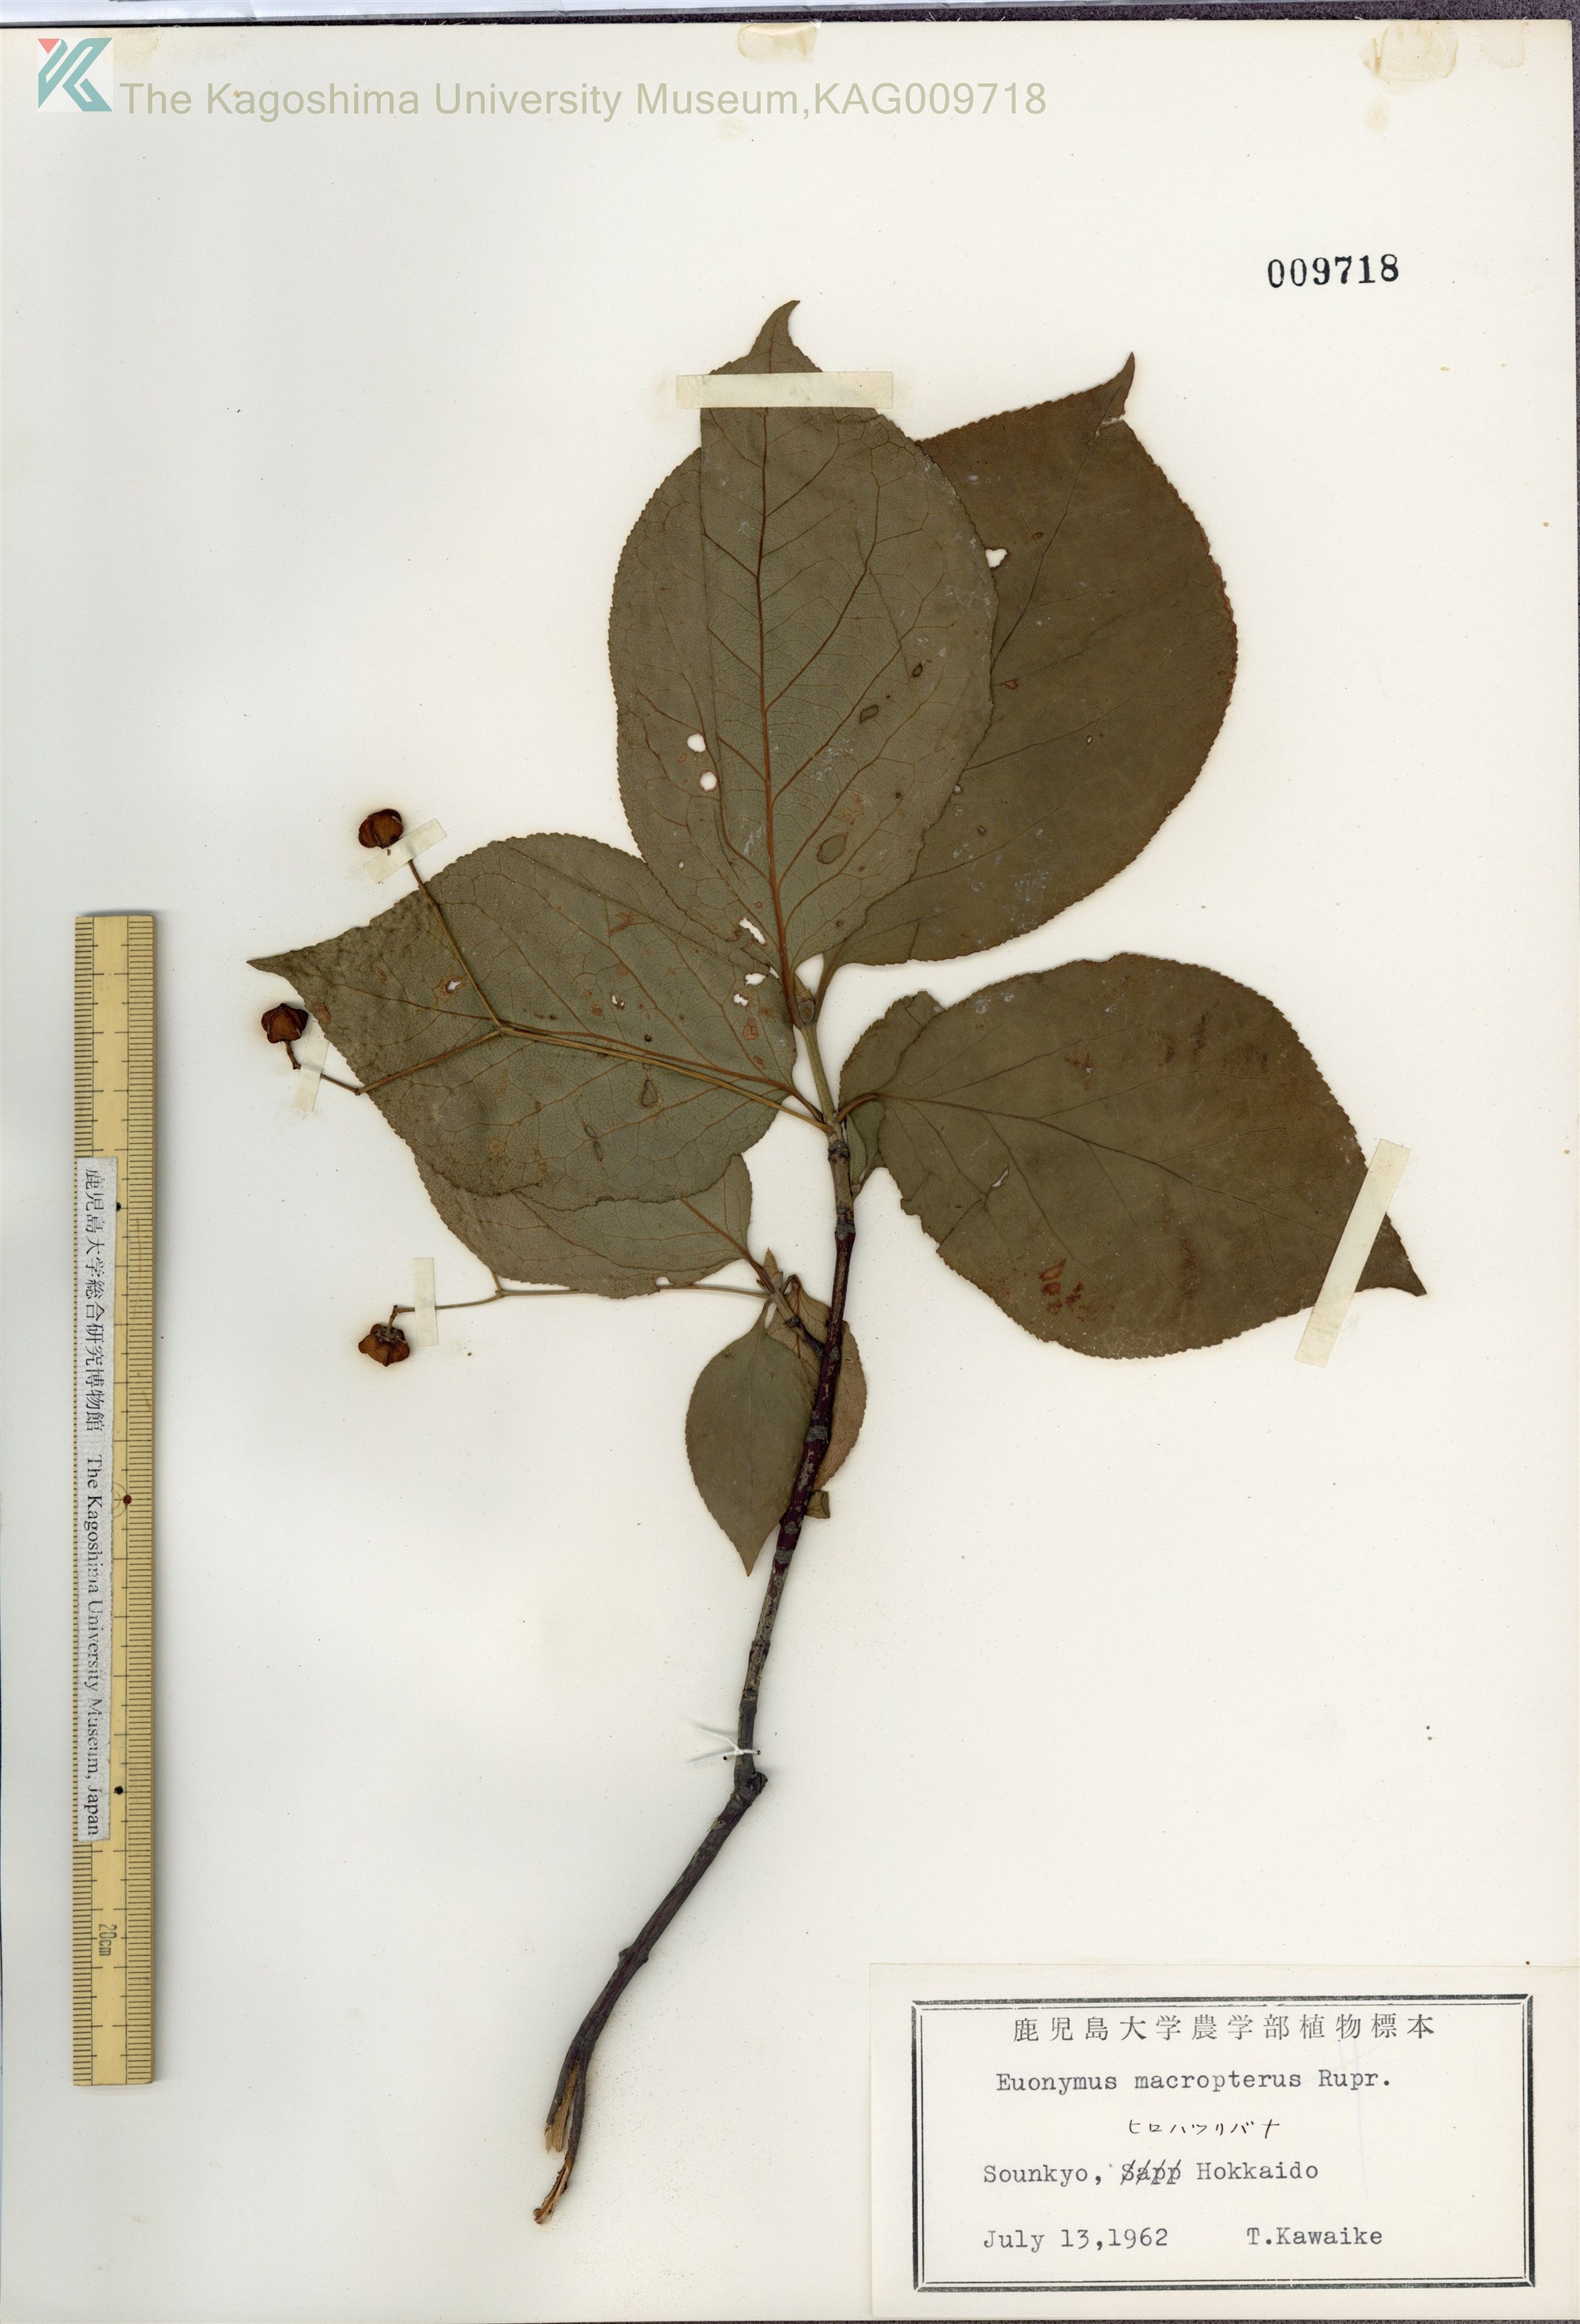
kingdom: Plantae
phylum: Tracheophyta
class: Magnoliopsida
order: Celastrales
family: Celastraceae
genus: Euonymus
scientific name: Euonymus macropterus
